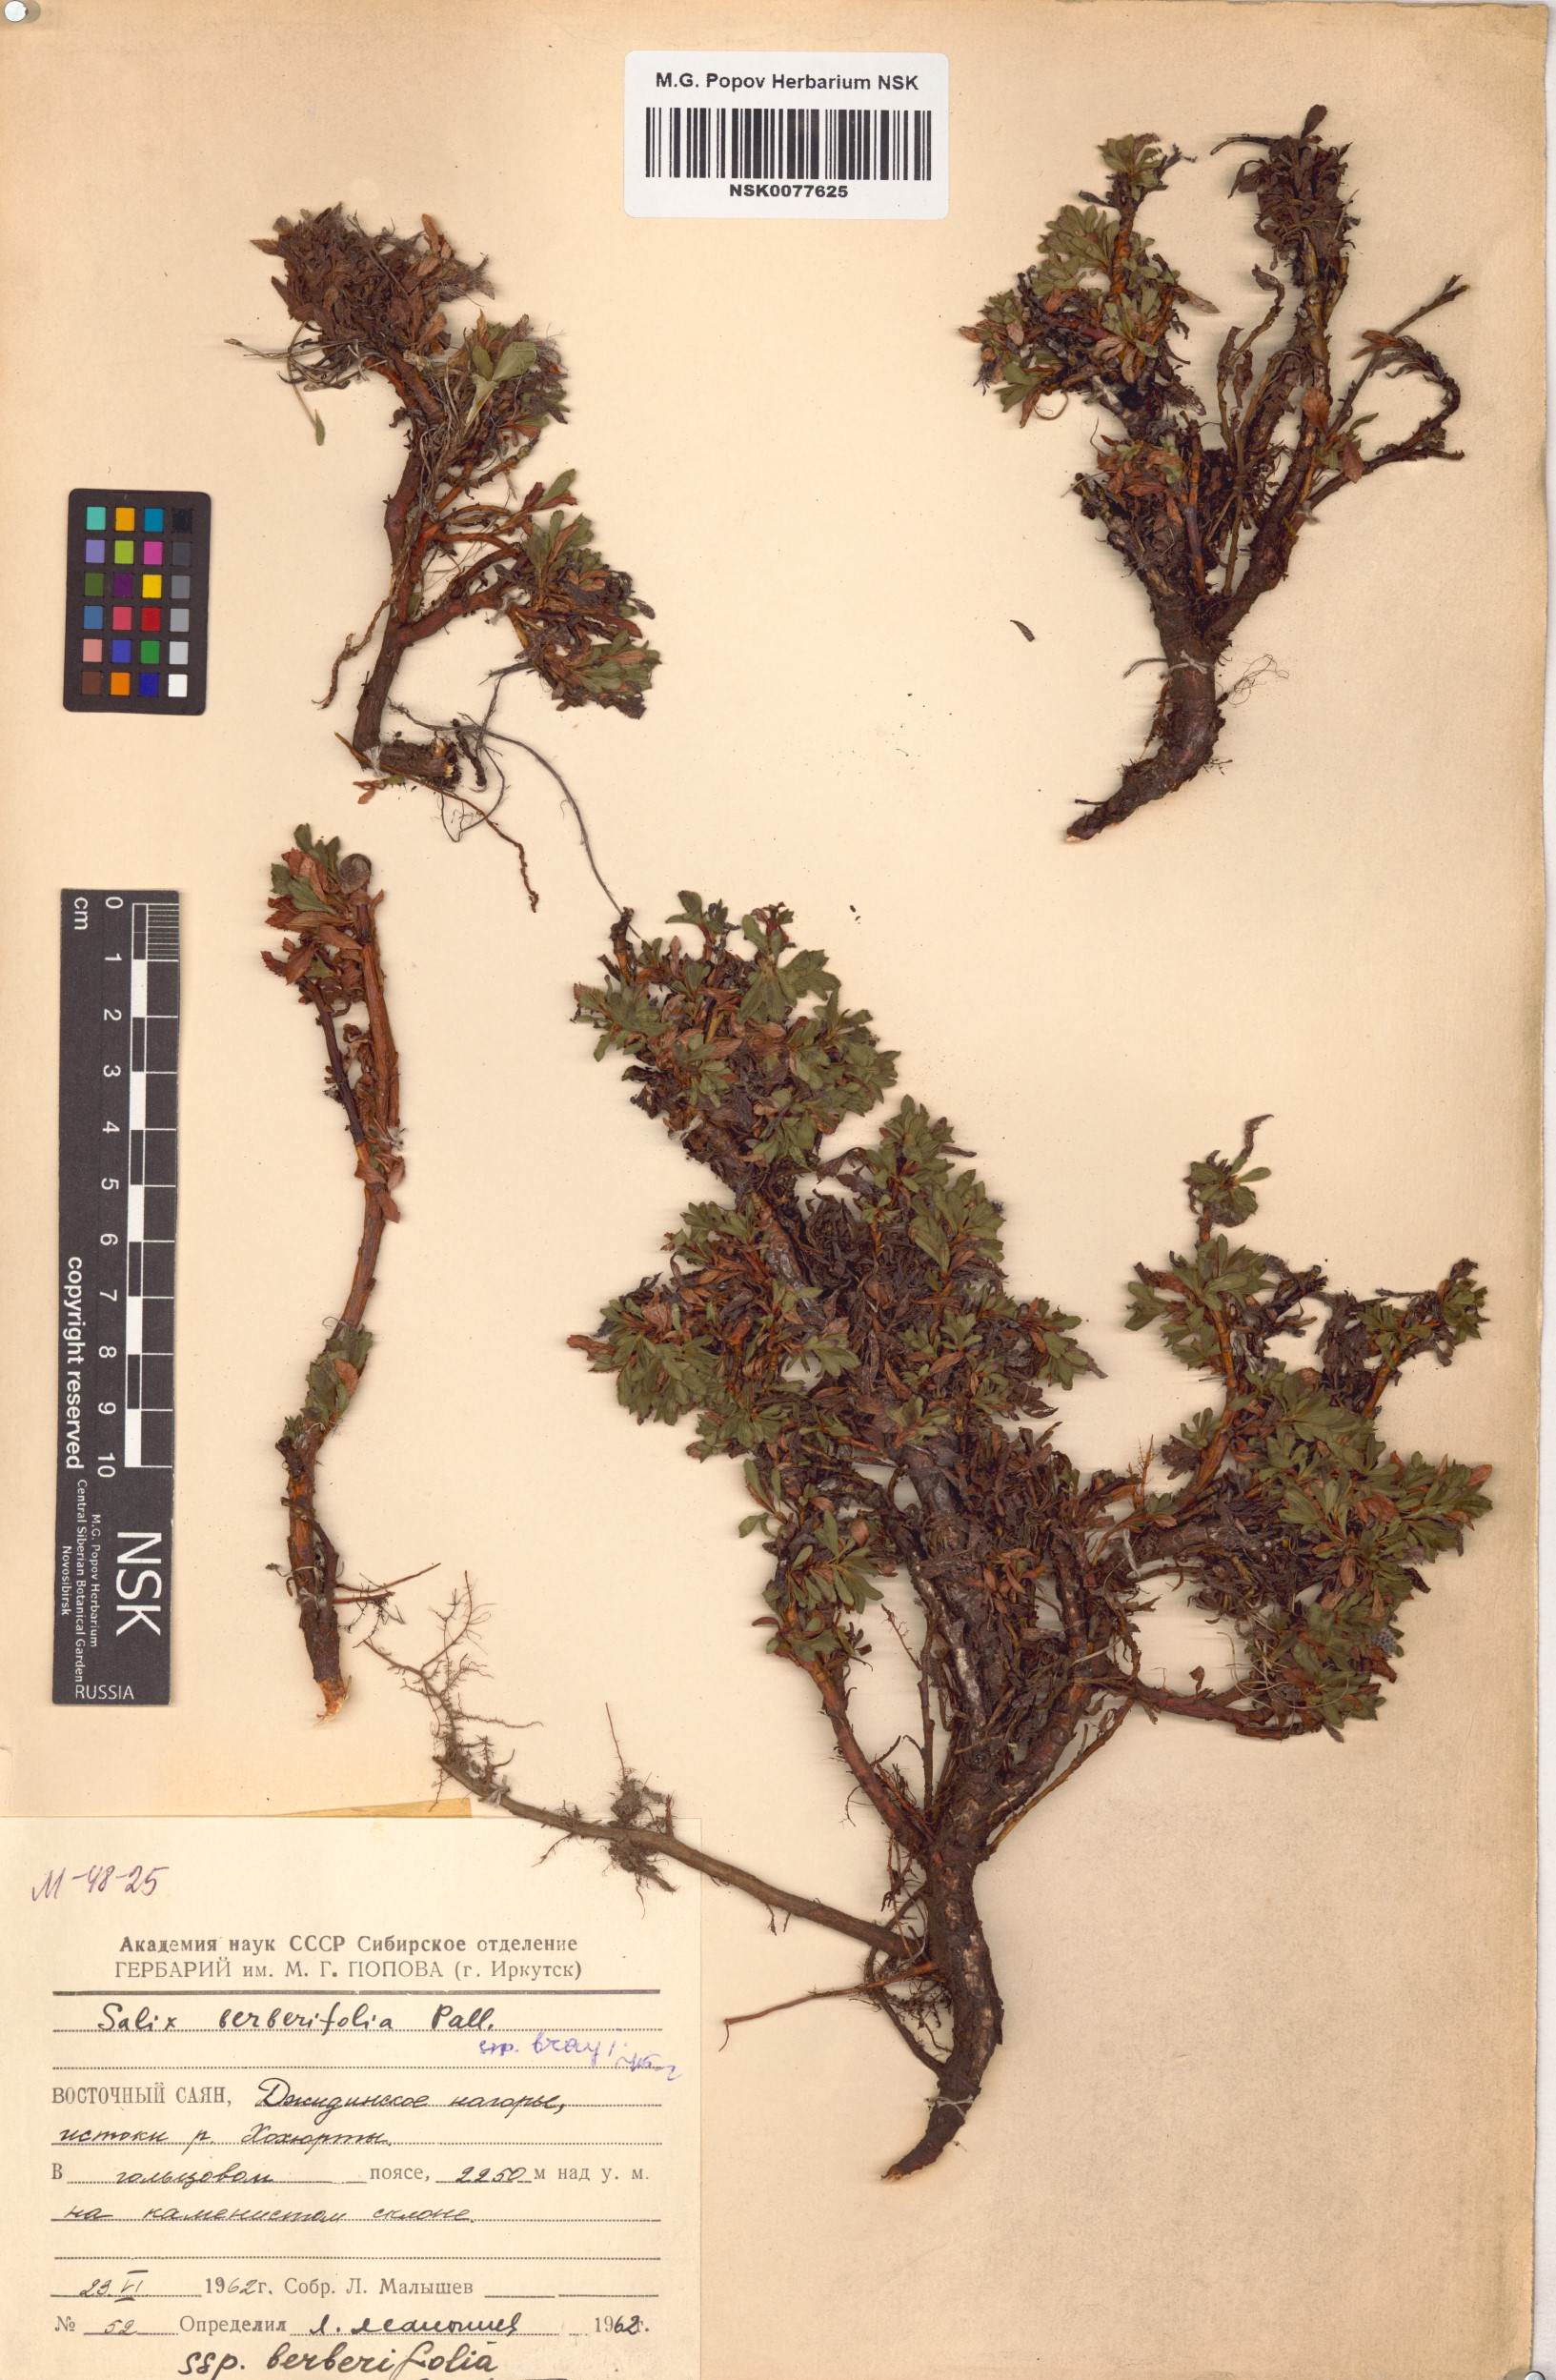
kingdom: Plantae
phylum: Tracheophyta
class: Magnoliopsida
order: Malpighiales
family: Salicaceae
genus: Salix
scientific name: Salix berberifolia
